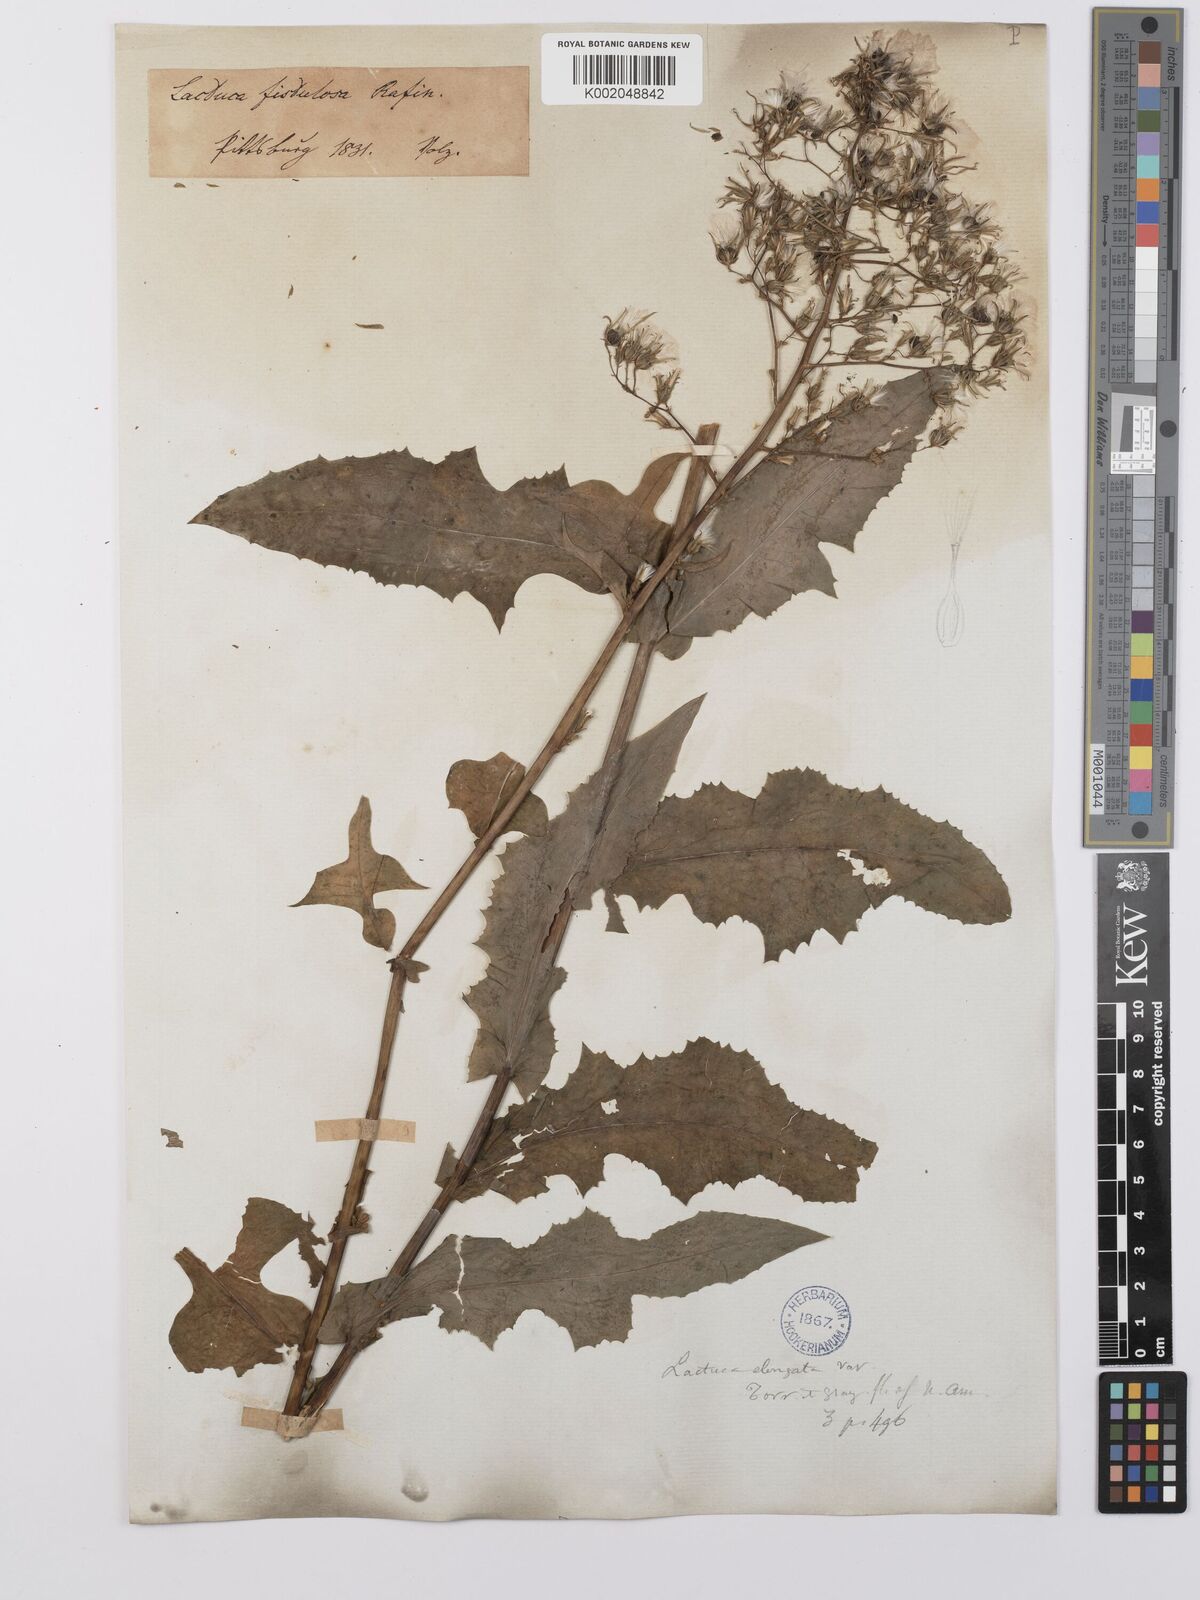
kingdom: Plantae
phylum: Tracheophyta
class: Magnoliopsida
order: Asterales
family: Asteraceae
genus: Lactuca
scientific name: Lactuca canadensis
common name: Canada lettuce
